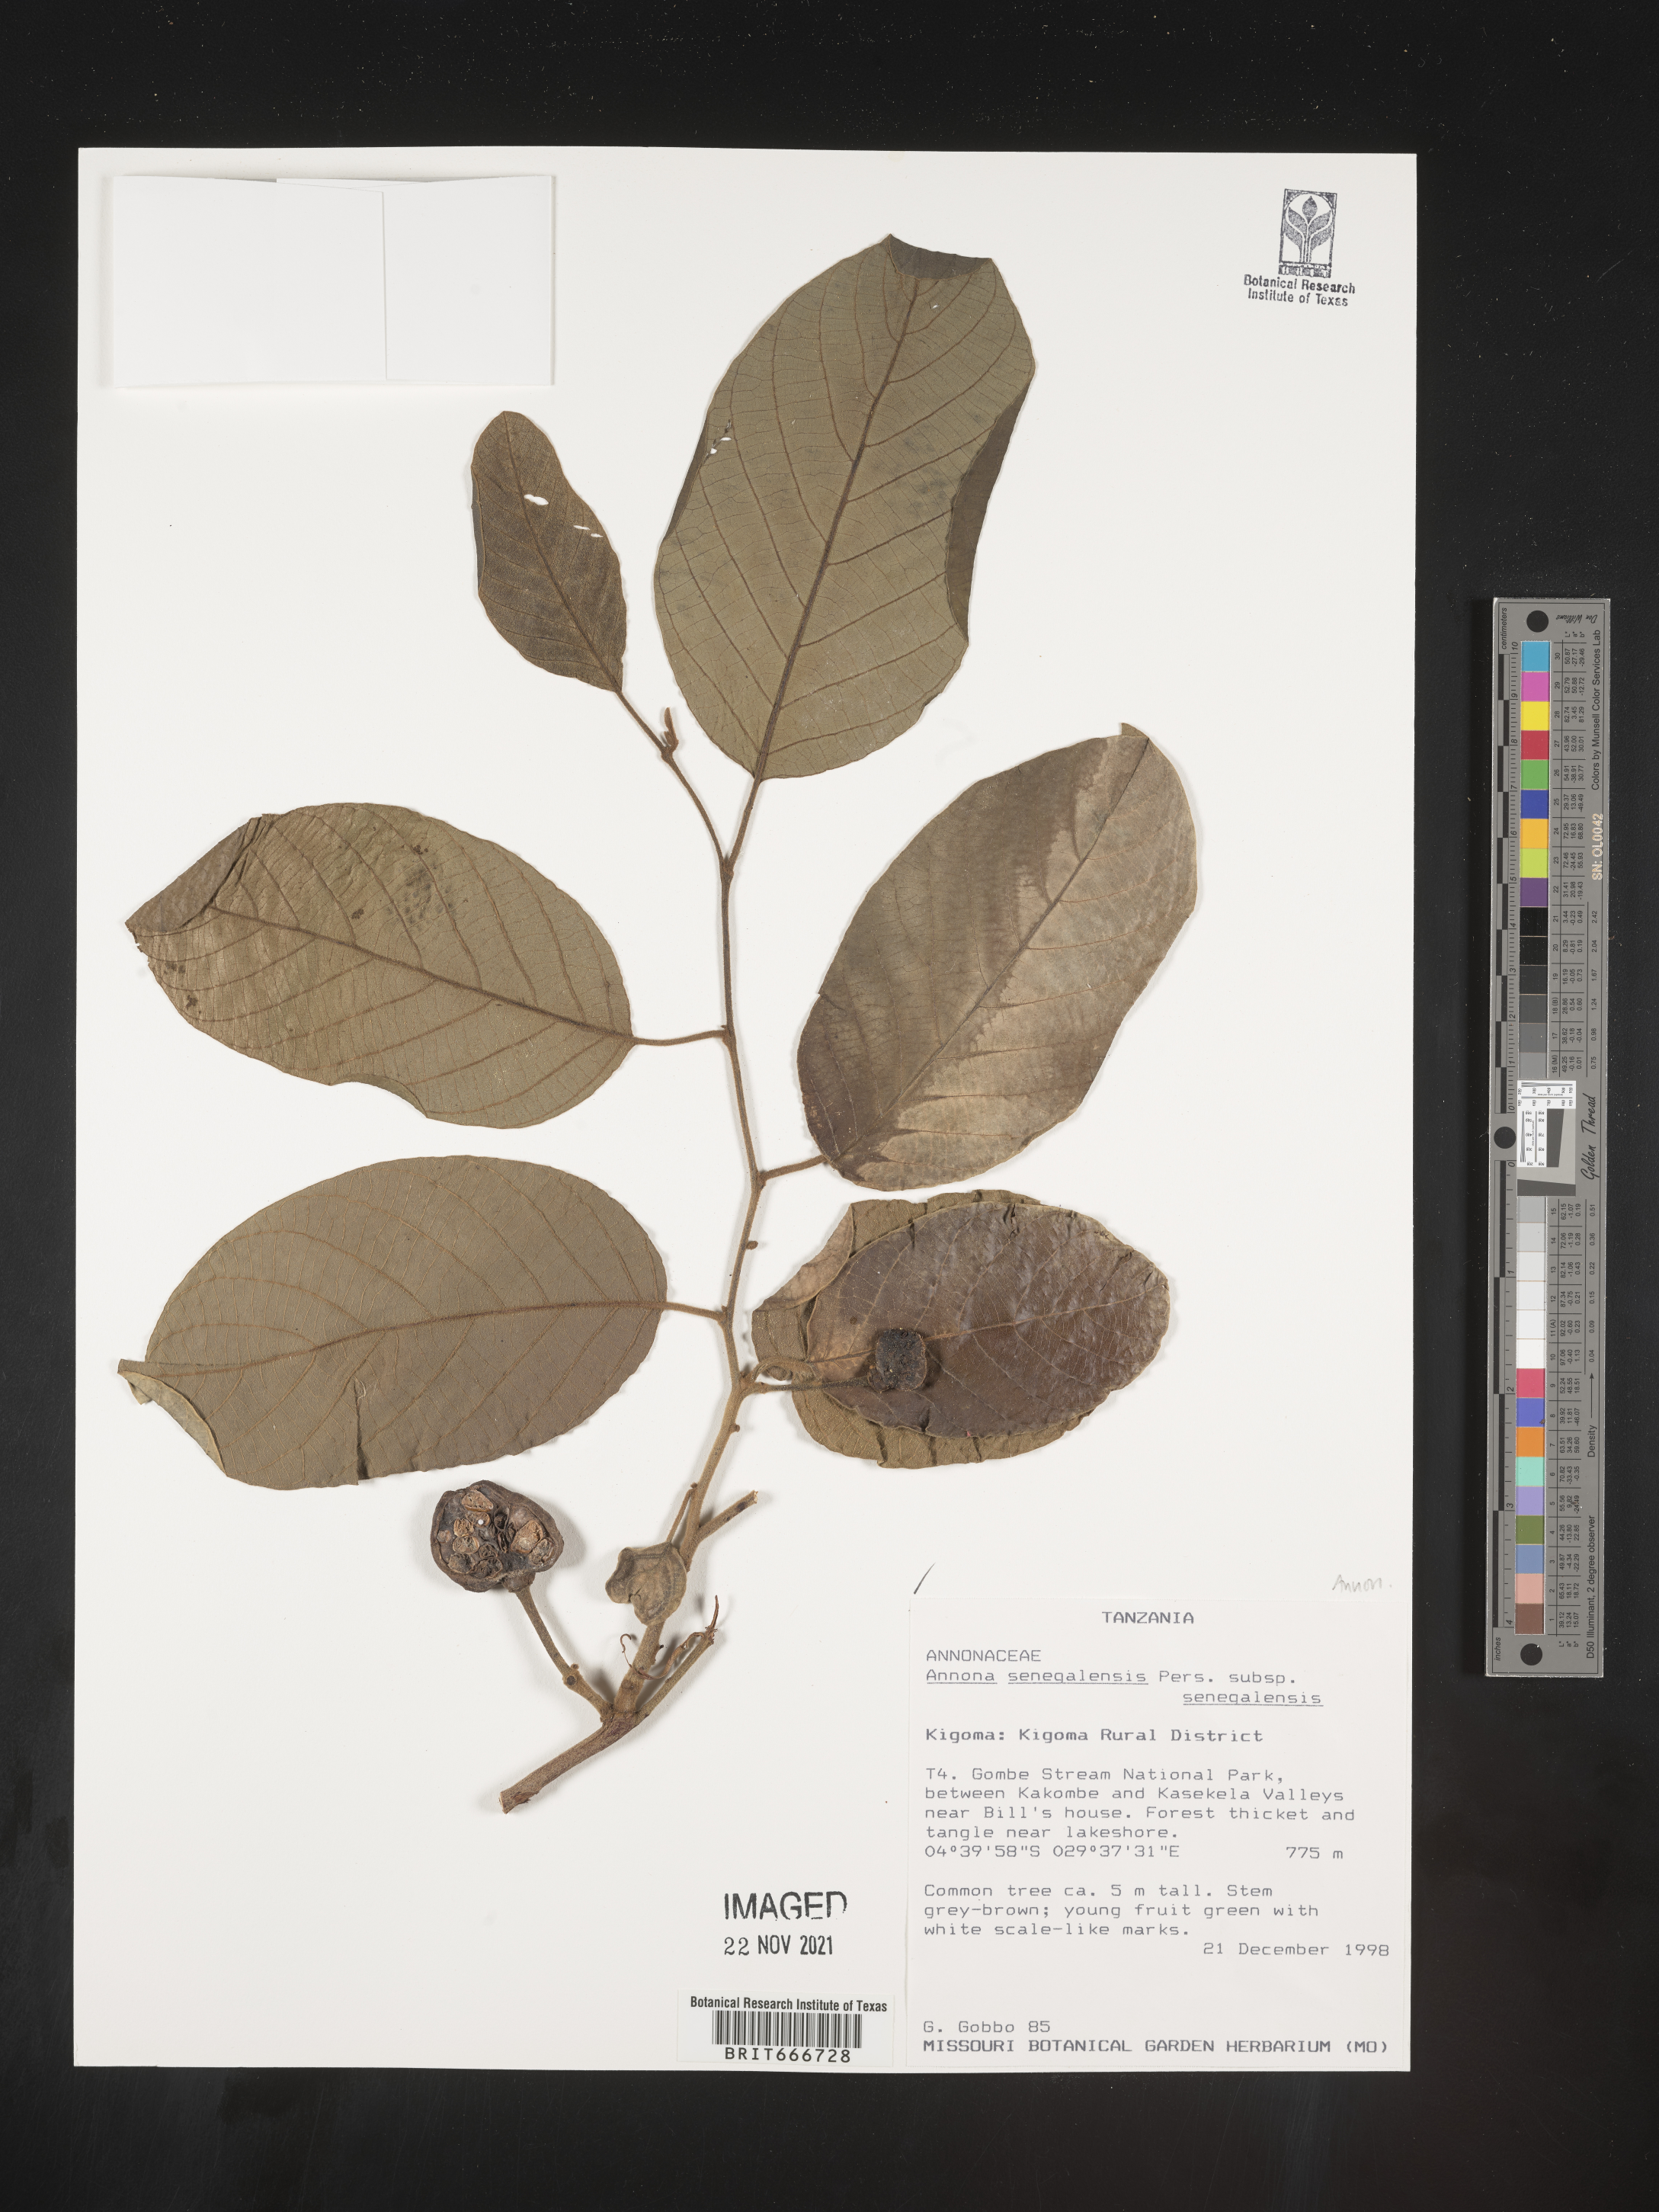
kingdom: Plantae
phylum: Tracheophyta
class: Magnoliopsida
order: Magnoliales
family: Annonaceae
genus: Annona
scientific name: Annona
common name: Anona
